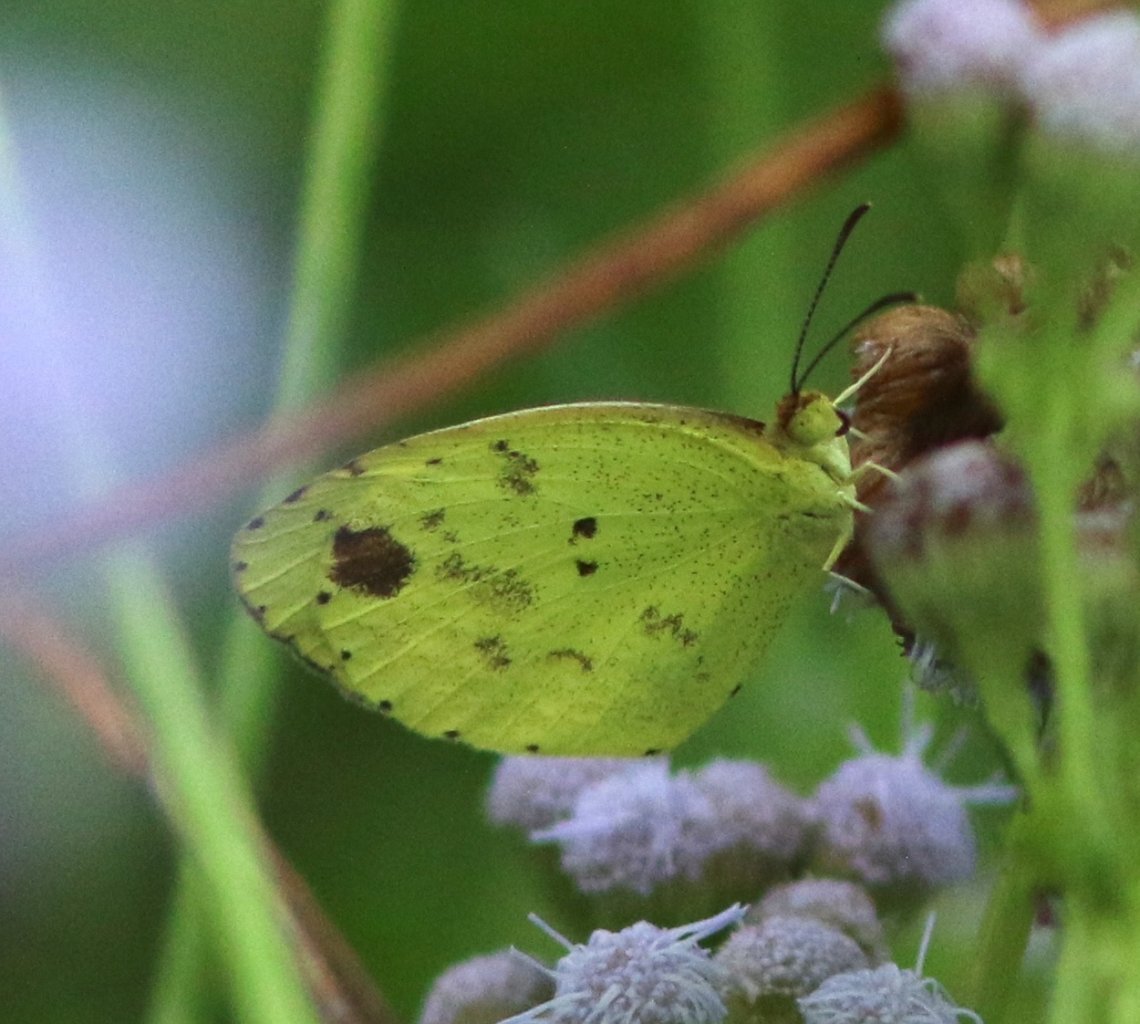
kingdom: Animalia
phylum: Arthropoda
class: Insecta
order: Lepidoptera
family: Pieridae
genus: Pyrisitia
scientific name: Pyrisitia nise
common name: Mimosa Yellow
